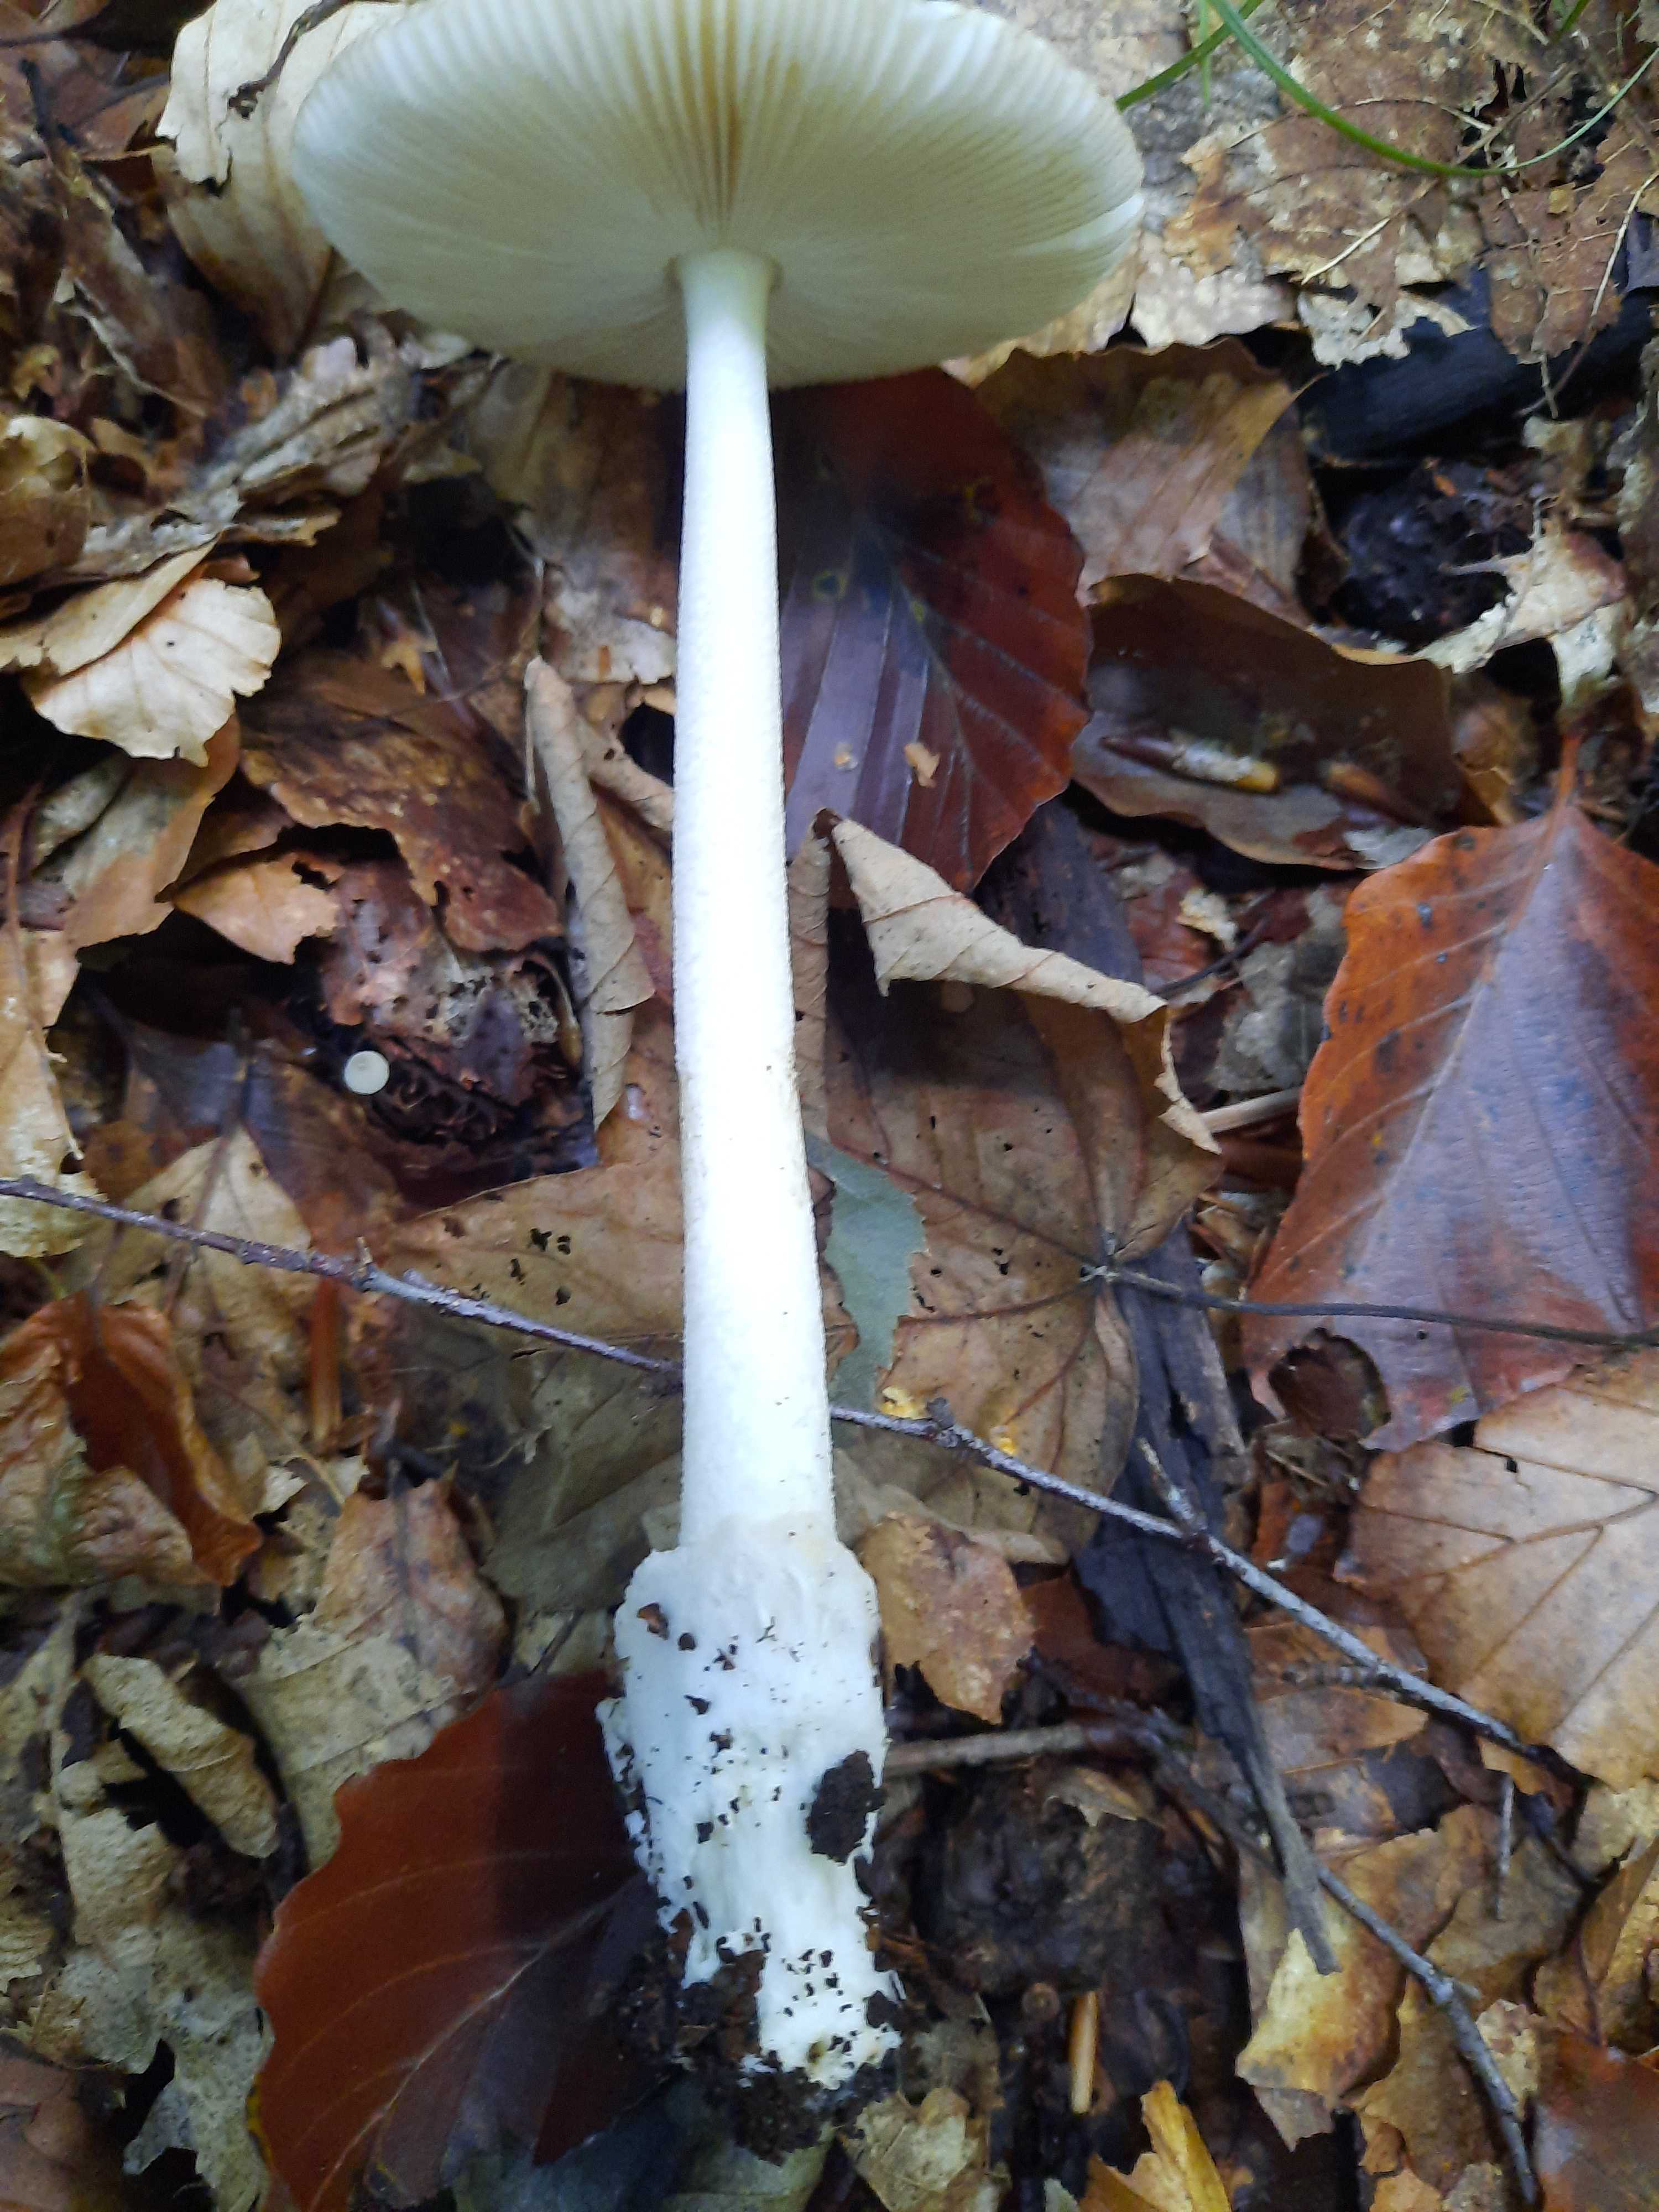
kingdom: Fungi
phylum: Basidiomycota
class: Agaricomycetes
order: Agaricales
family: Amanitaceae
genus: Amanita
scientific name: Amanita fulva
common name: brun kam-fluesvamp
